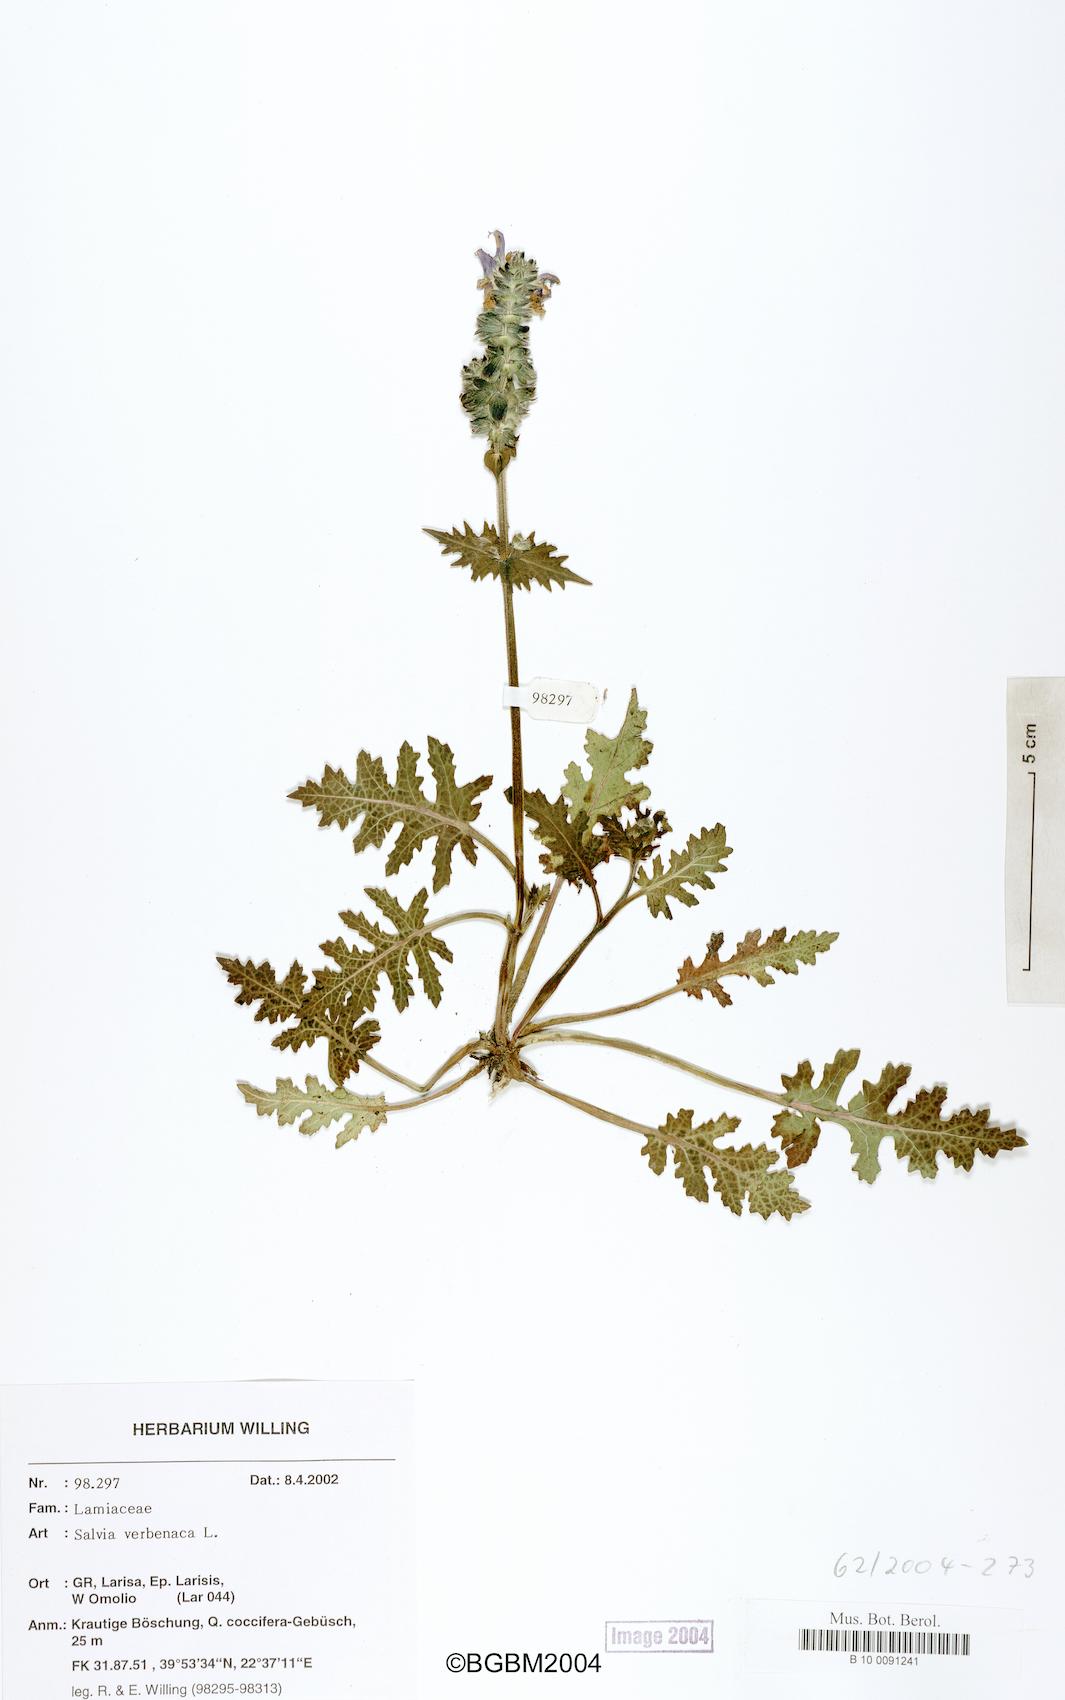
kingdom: Plantae
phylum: Tracheophyta
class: Magnoliopsida
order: Lamiales
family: Lamiaceae
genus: Salvia
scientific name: Salvia verbenaca
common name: Wild clary
